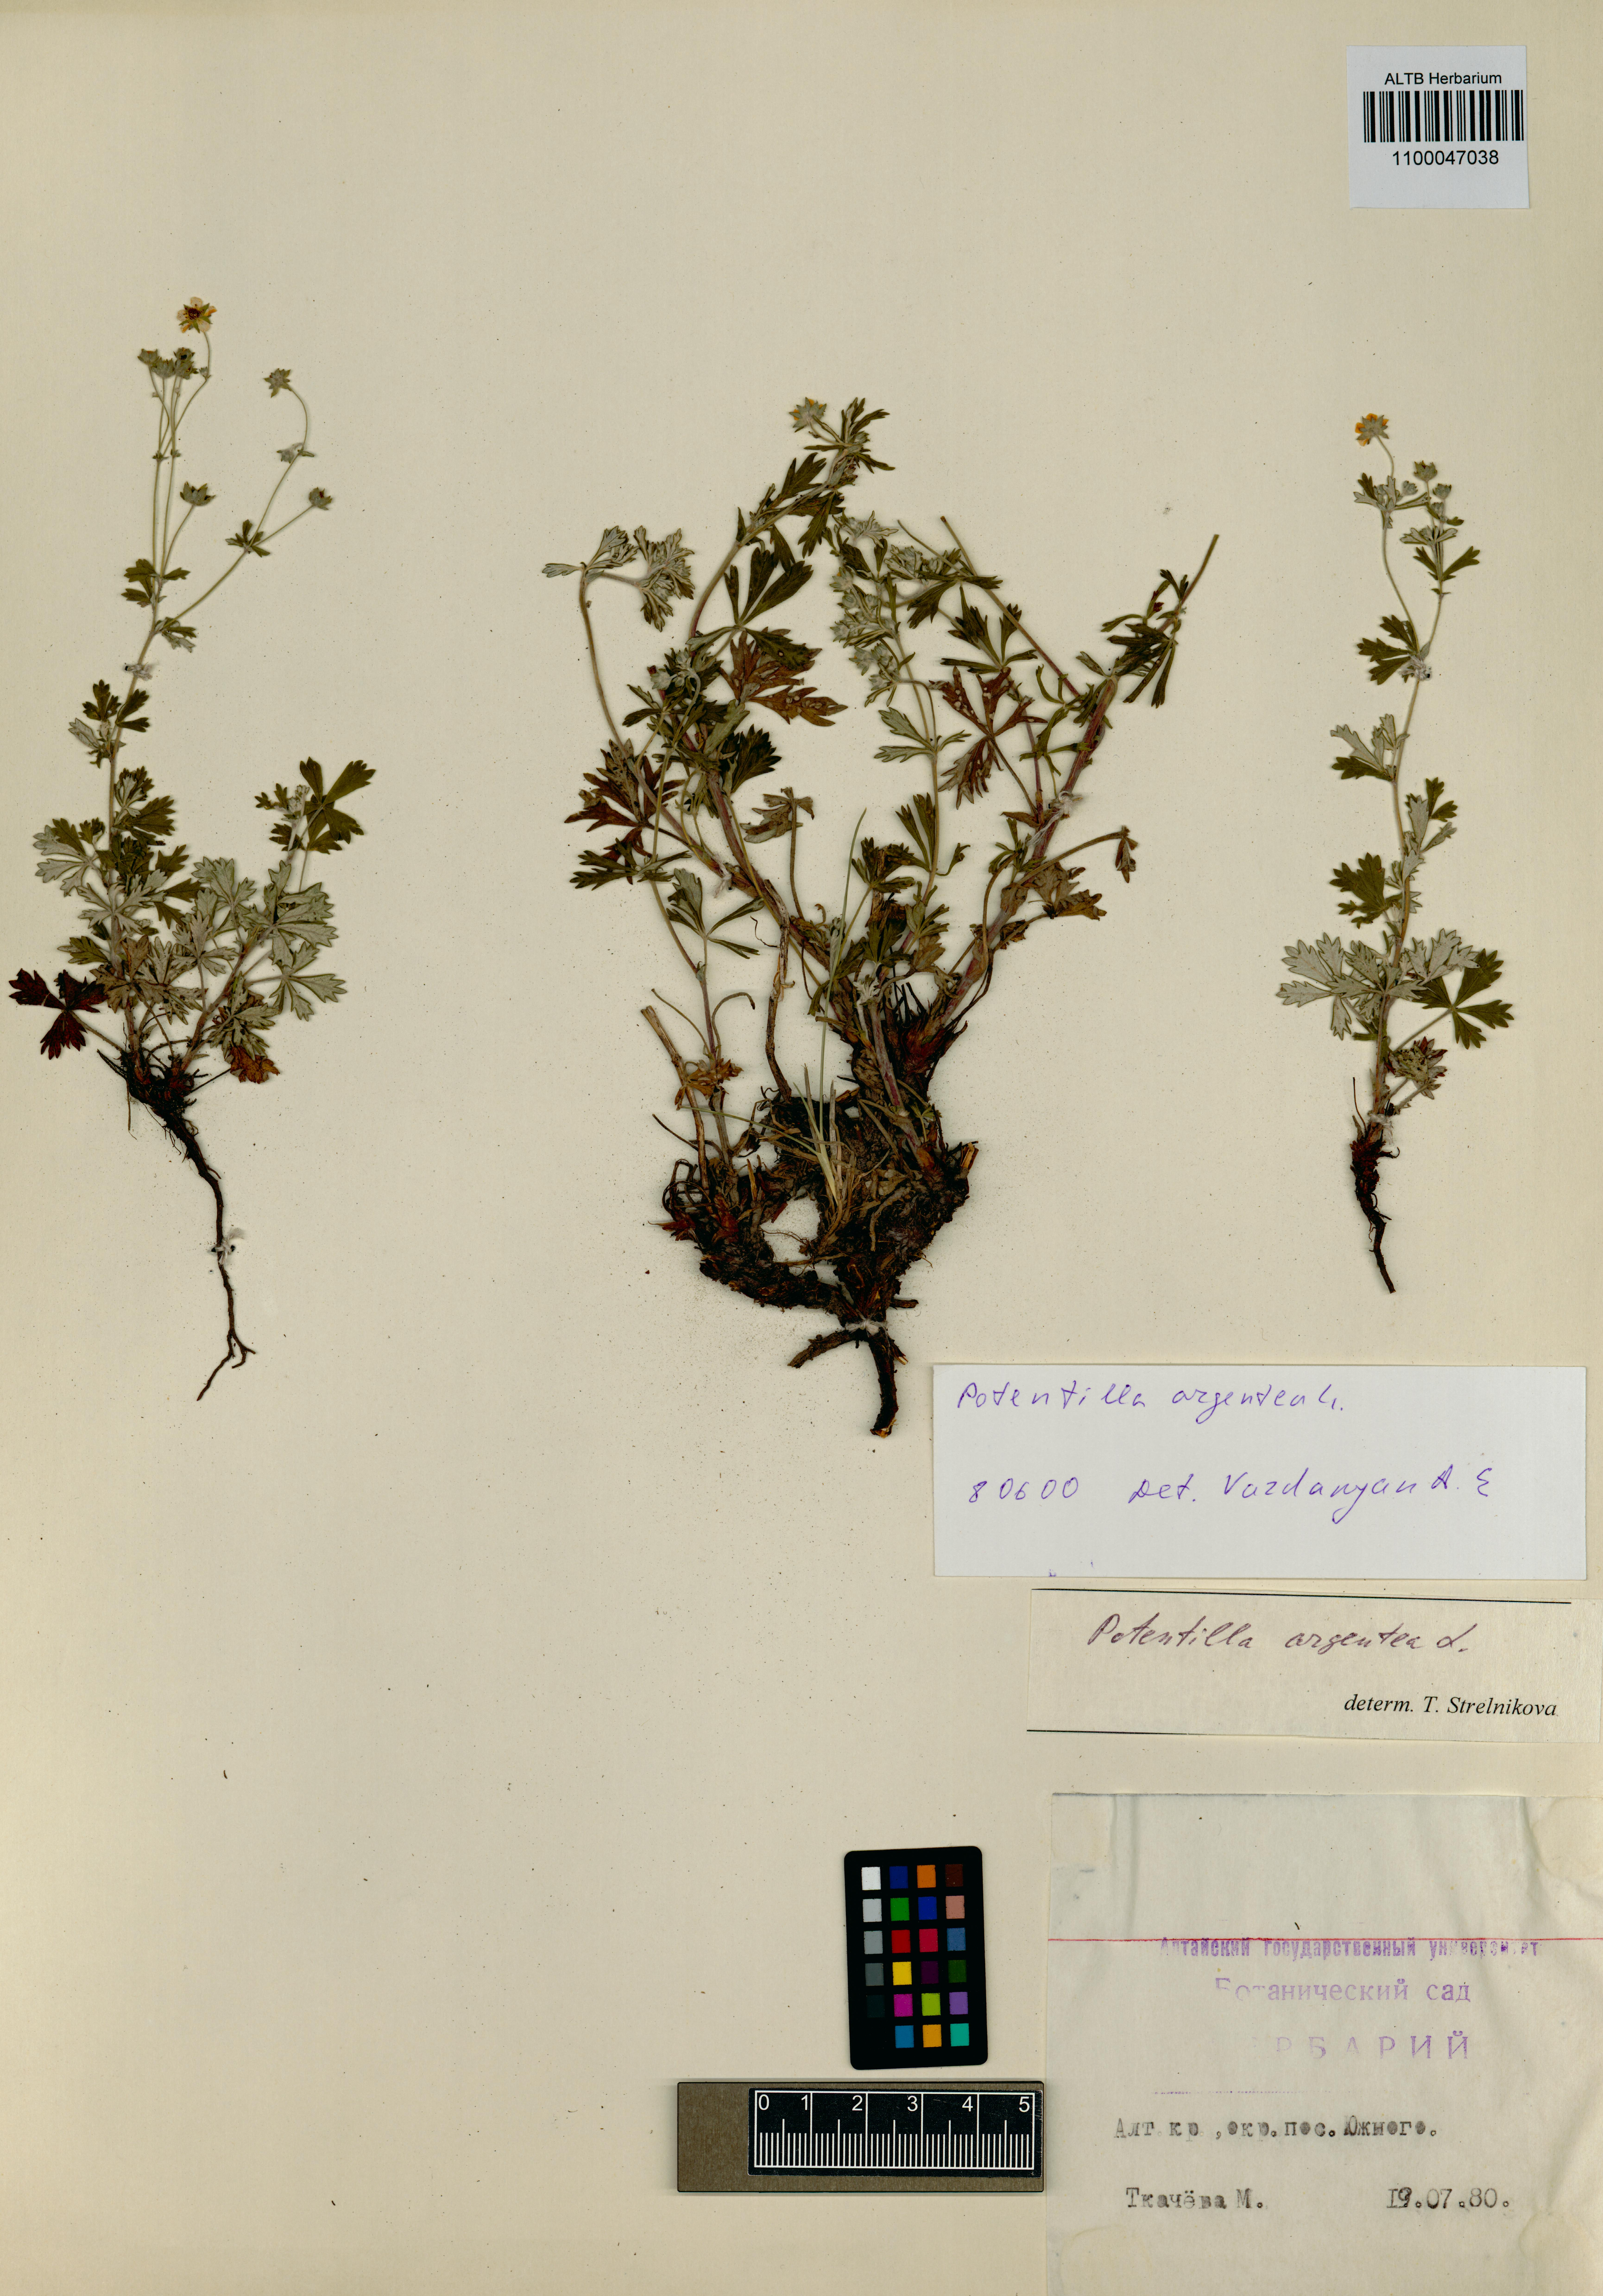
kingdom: Plantae
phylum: Tracheophyta
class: Magnoliopsida
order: Rosales
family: Rosaceae
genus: Potentilla
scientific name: Potentilla argentea
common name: Hoary cinquefoil
